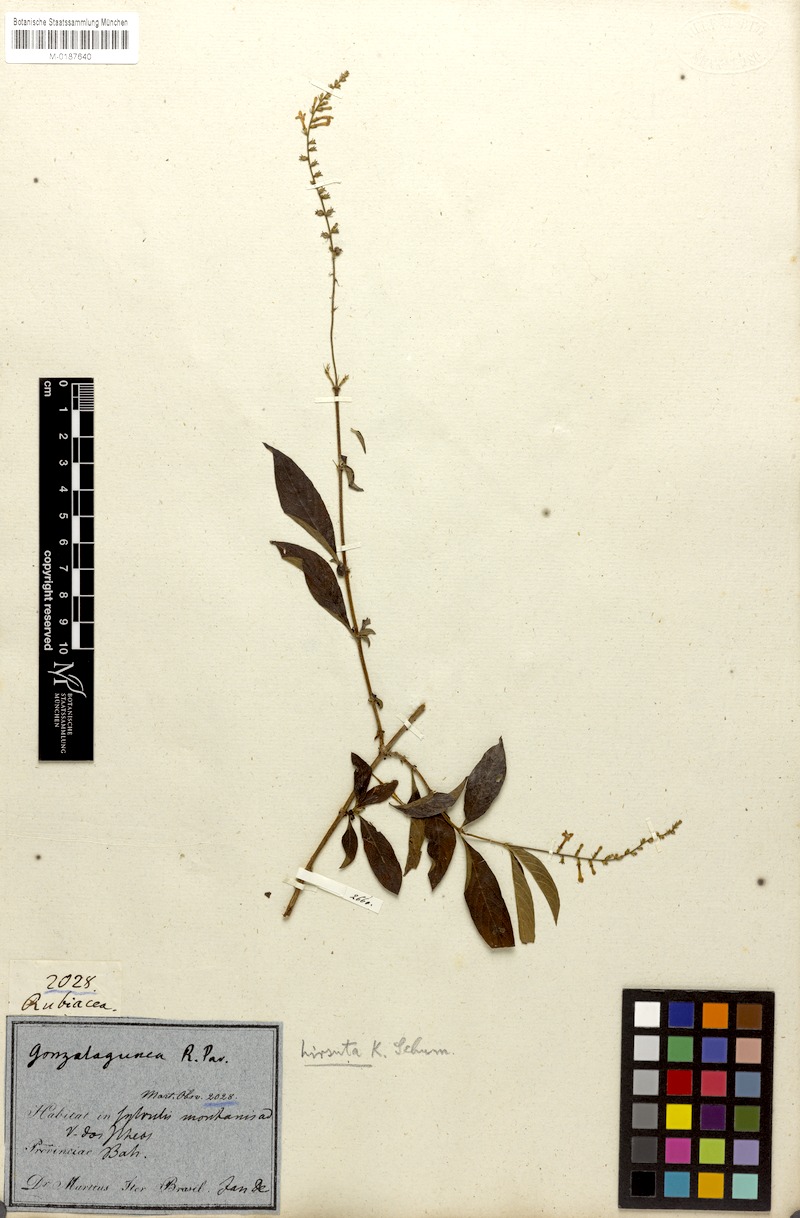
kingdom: Plantae
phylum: Tracheophyta
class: Magnoliopsida
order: Gentianales
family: Rubiaceae
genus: Gonzalagunia
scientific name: Gonzalagunia dicocca
